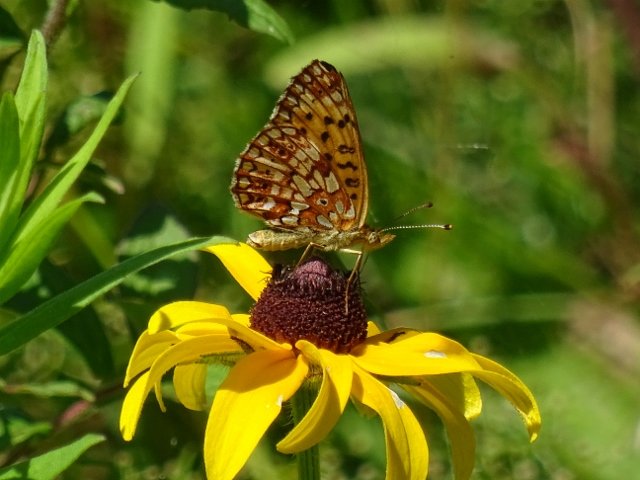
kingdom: Animalia
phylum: Arthropoda
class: Insecta
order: Lepidoptera
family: Nymphalidae
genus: Boloria
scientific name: Boloria selene
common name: Silver-bordered Fritillary
